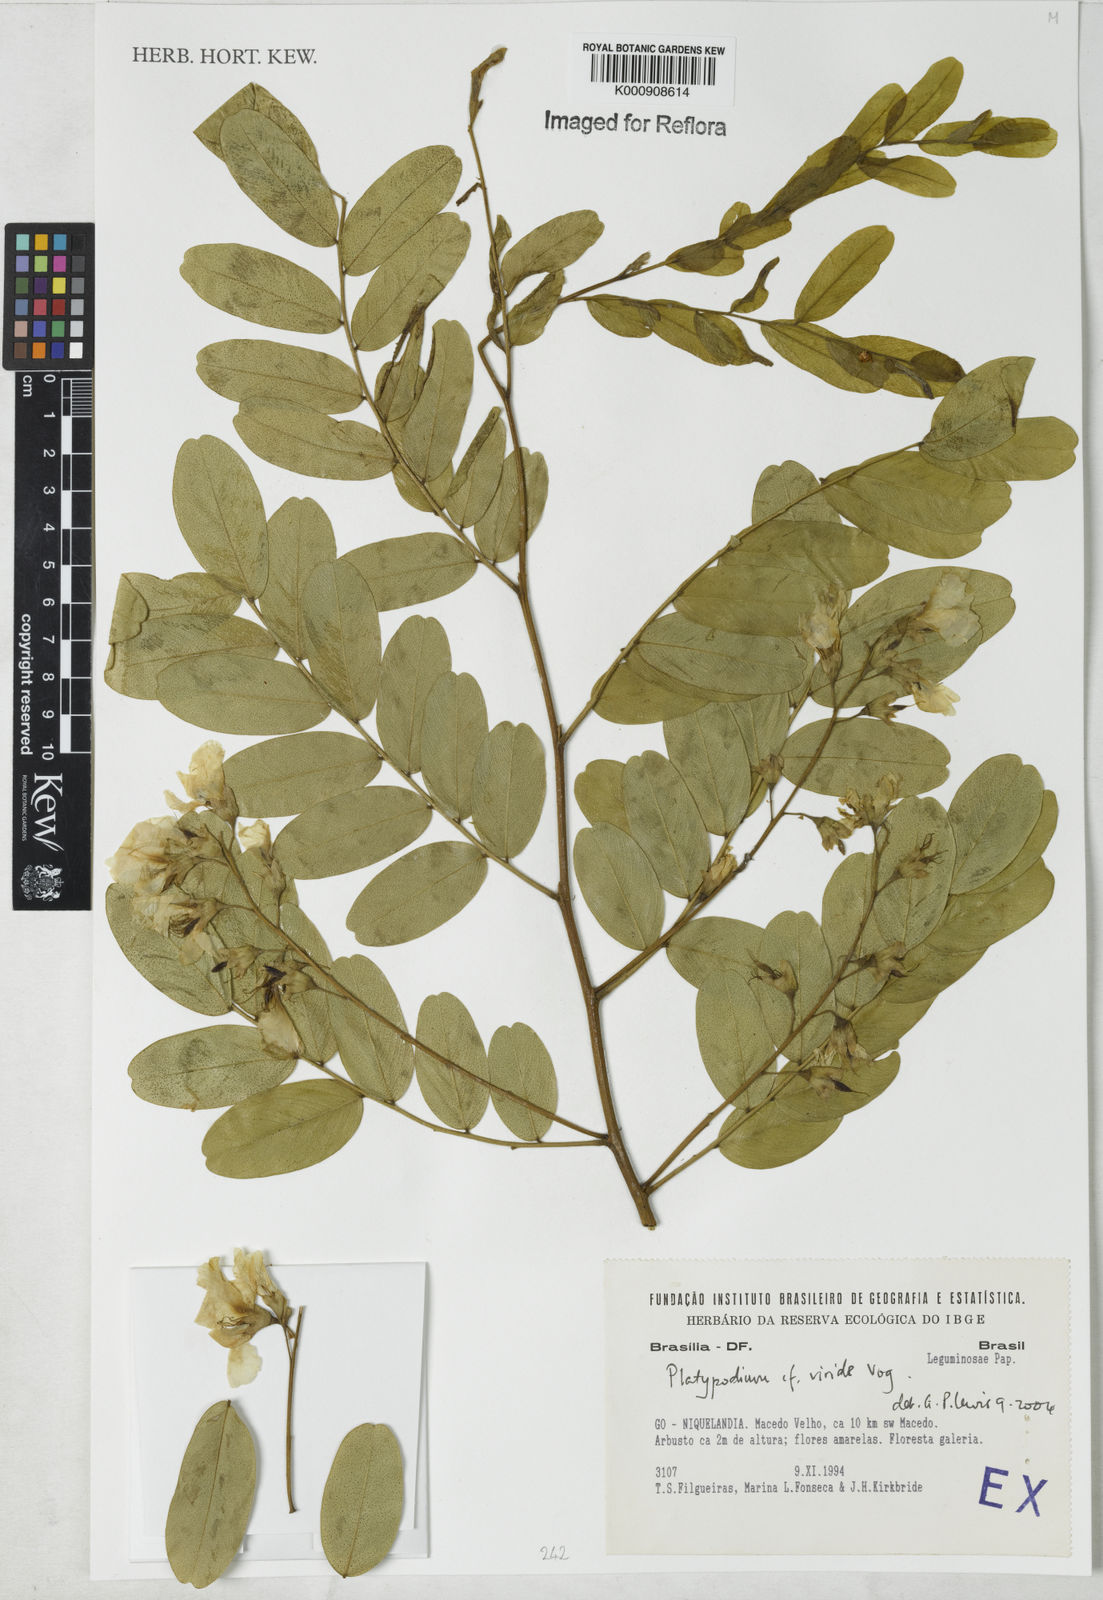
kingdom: Plantae
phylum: Tracheophyta
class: Magnoliopsida
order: Fabales
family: Fabaceae
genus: Platypodium
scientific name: Platypodium viride
